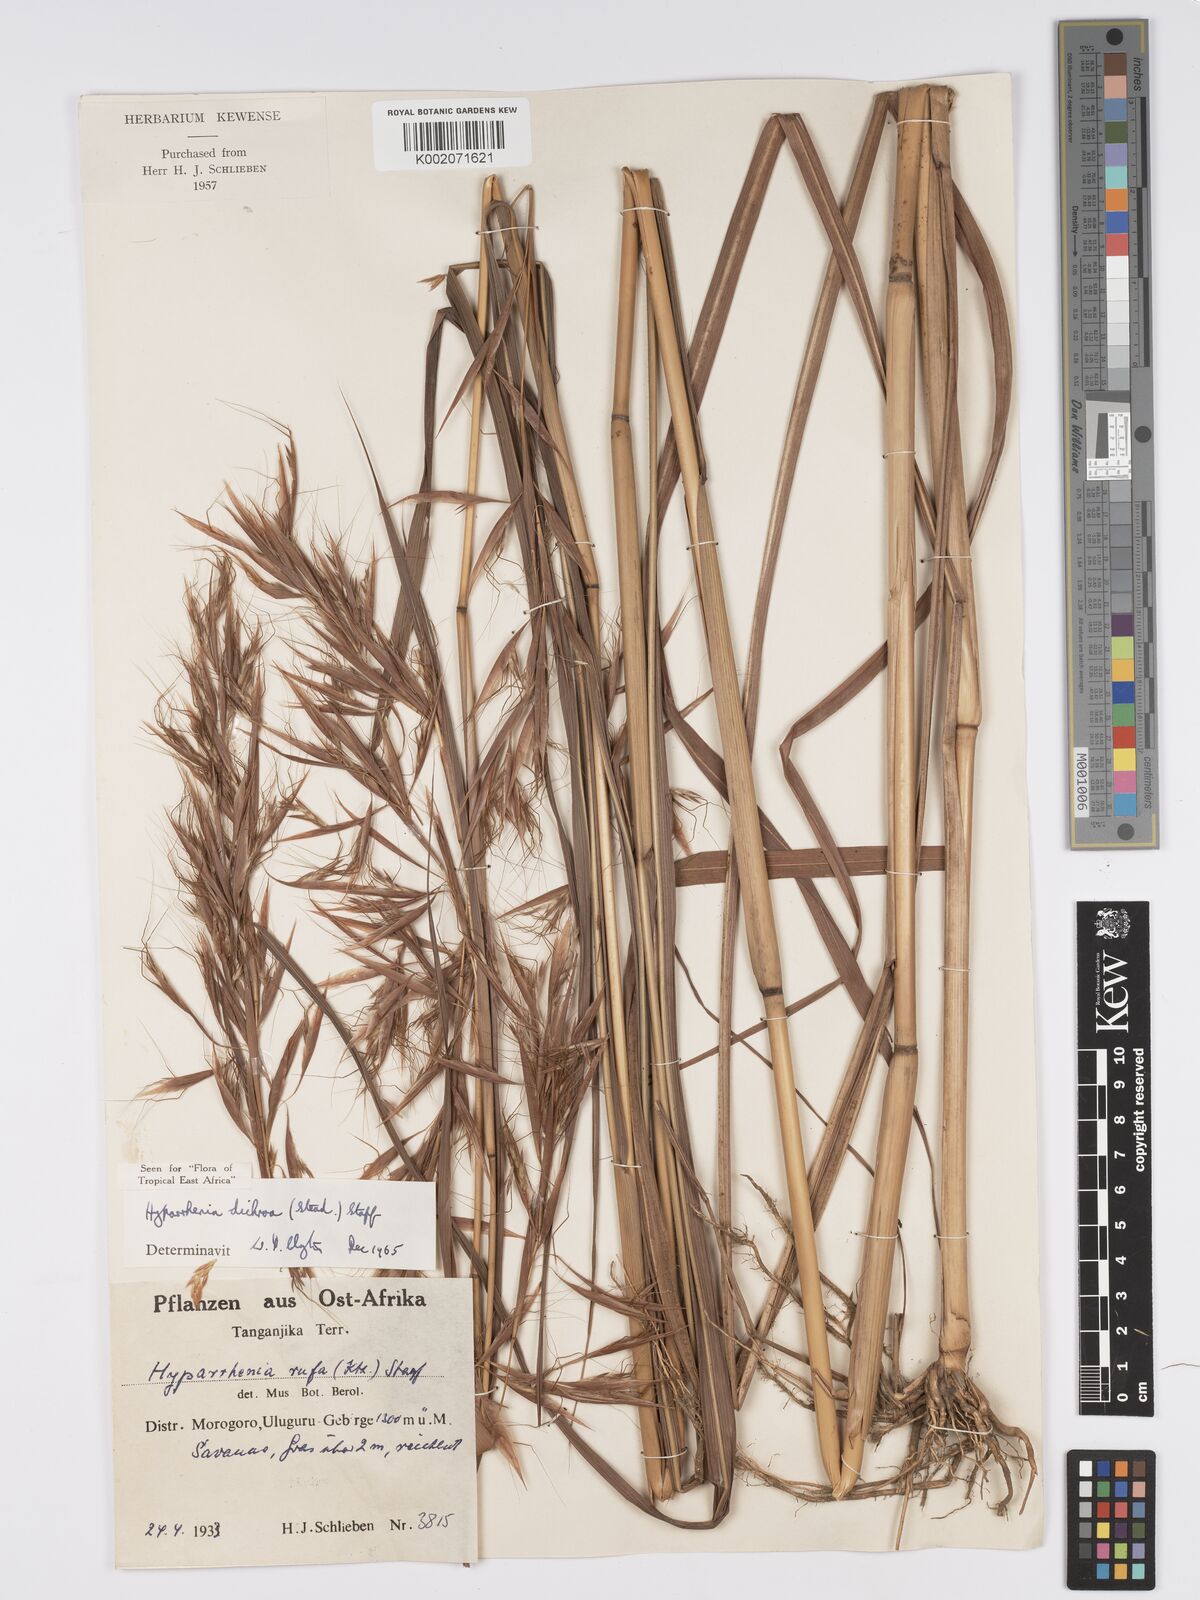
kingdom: Plantae
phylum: Tracheophyta
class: Liliopsida
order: Poales
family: Poaceae
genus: Hyparrhenia
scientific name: Hyparrhenia dichroa
